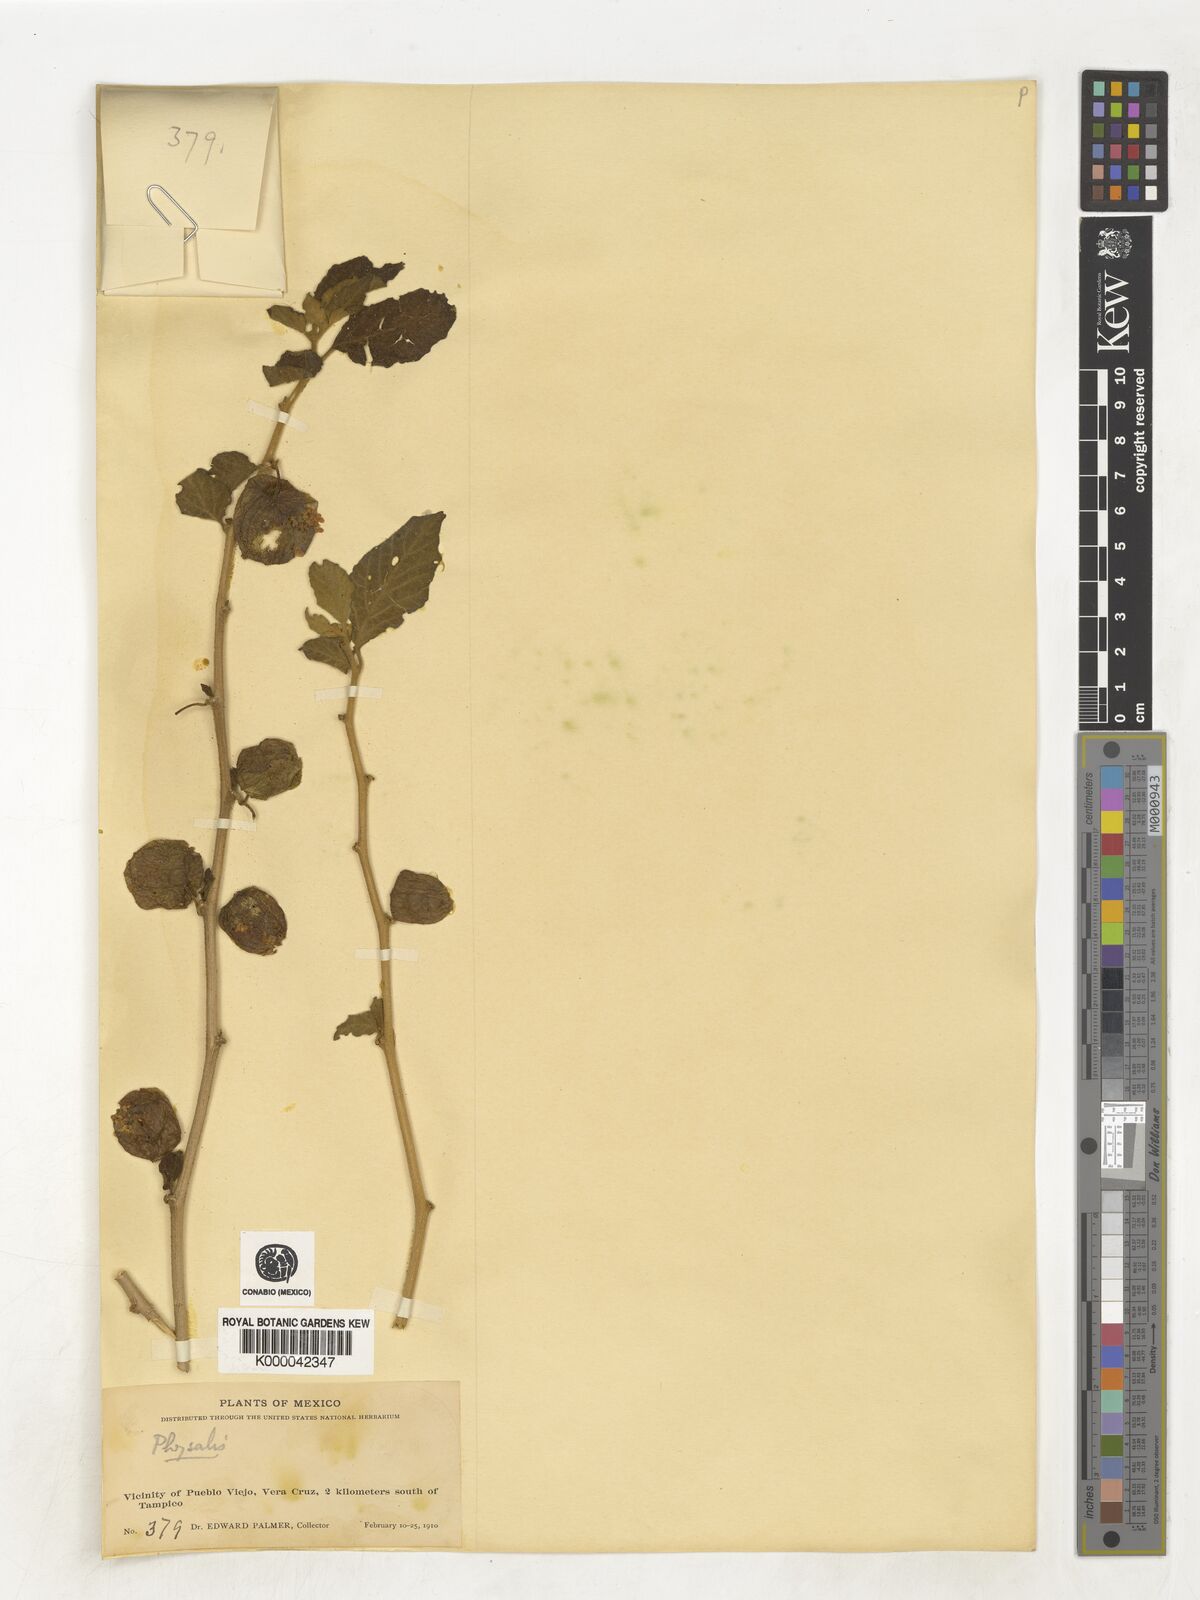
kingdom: Plantae
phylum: Tracheophyta
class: Magnoliopsida
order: Solanales
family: Solanaceae
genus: Physalis
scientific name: Physalis
